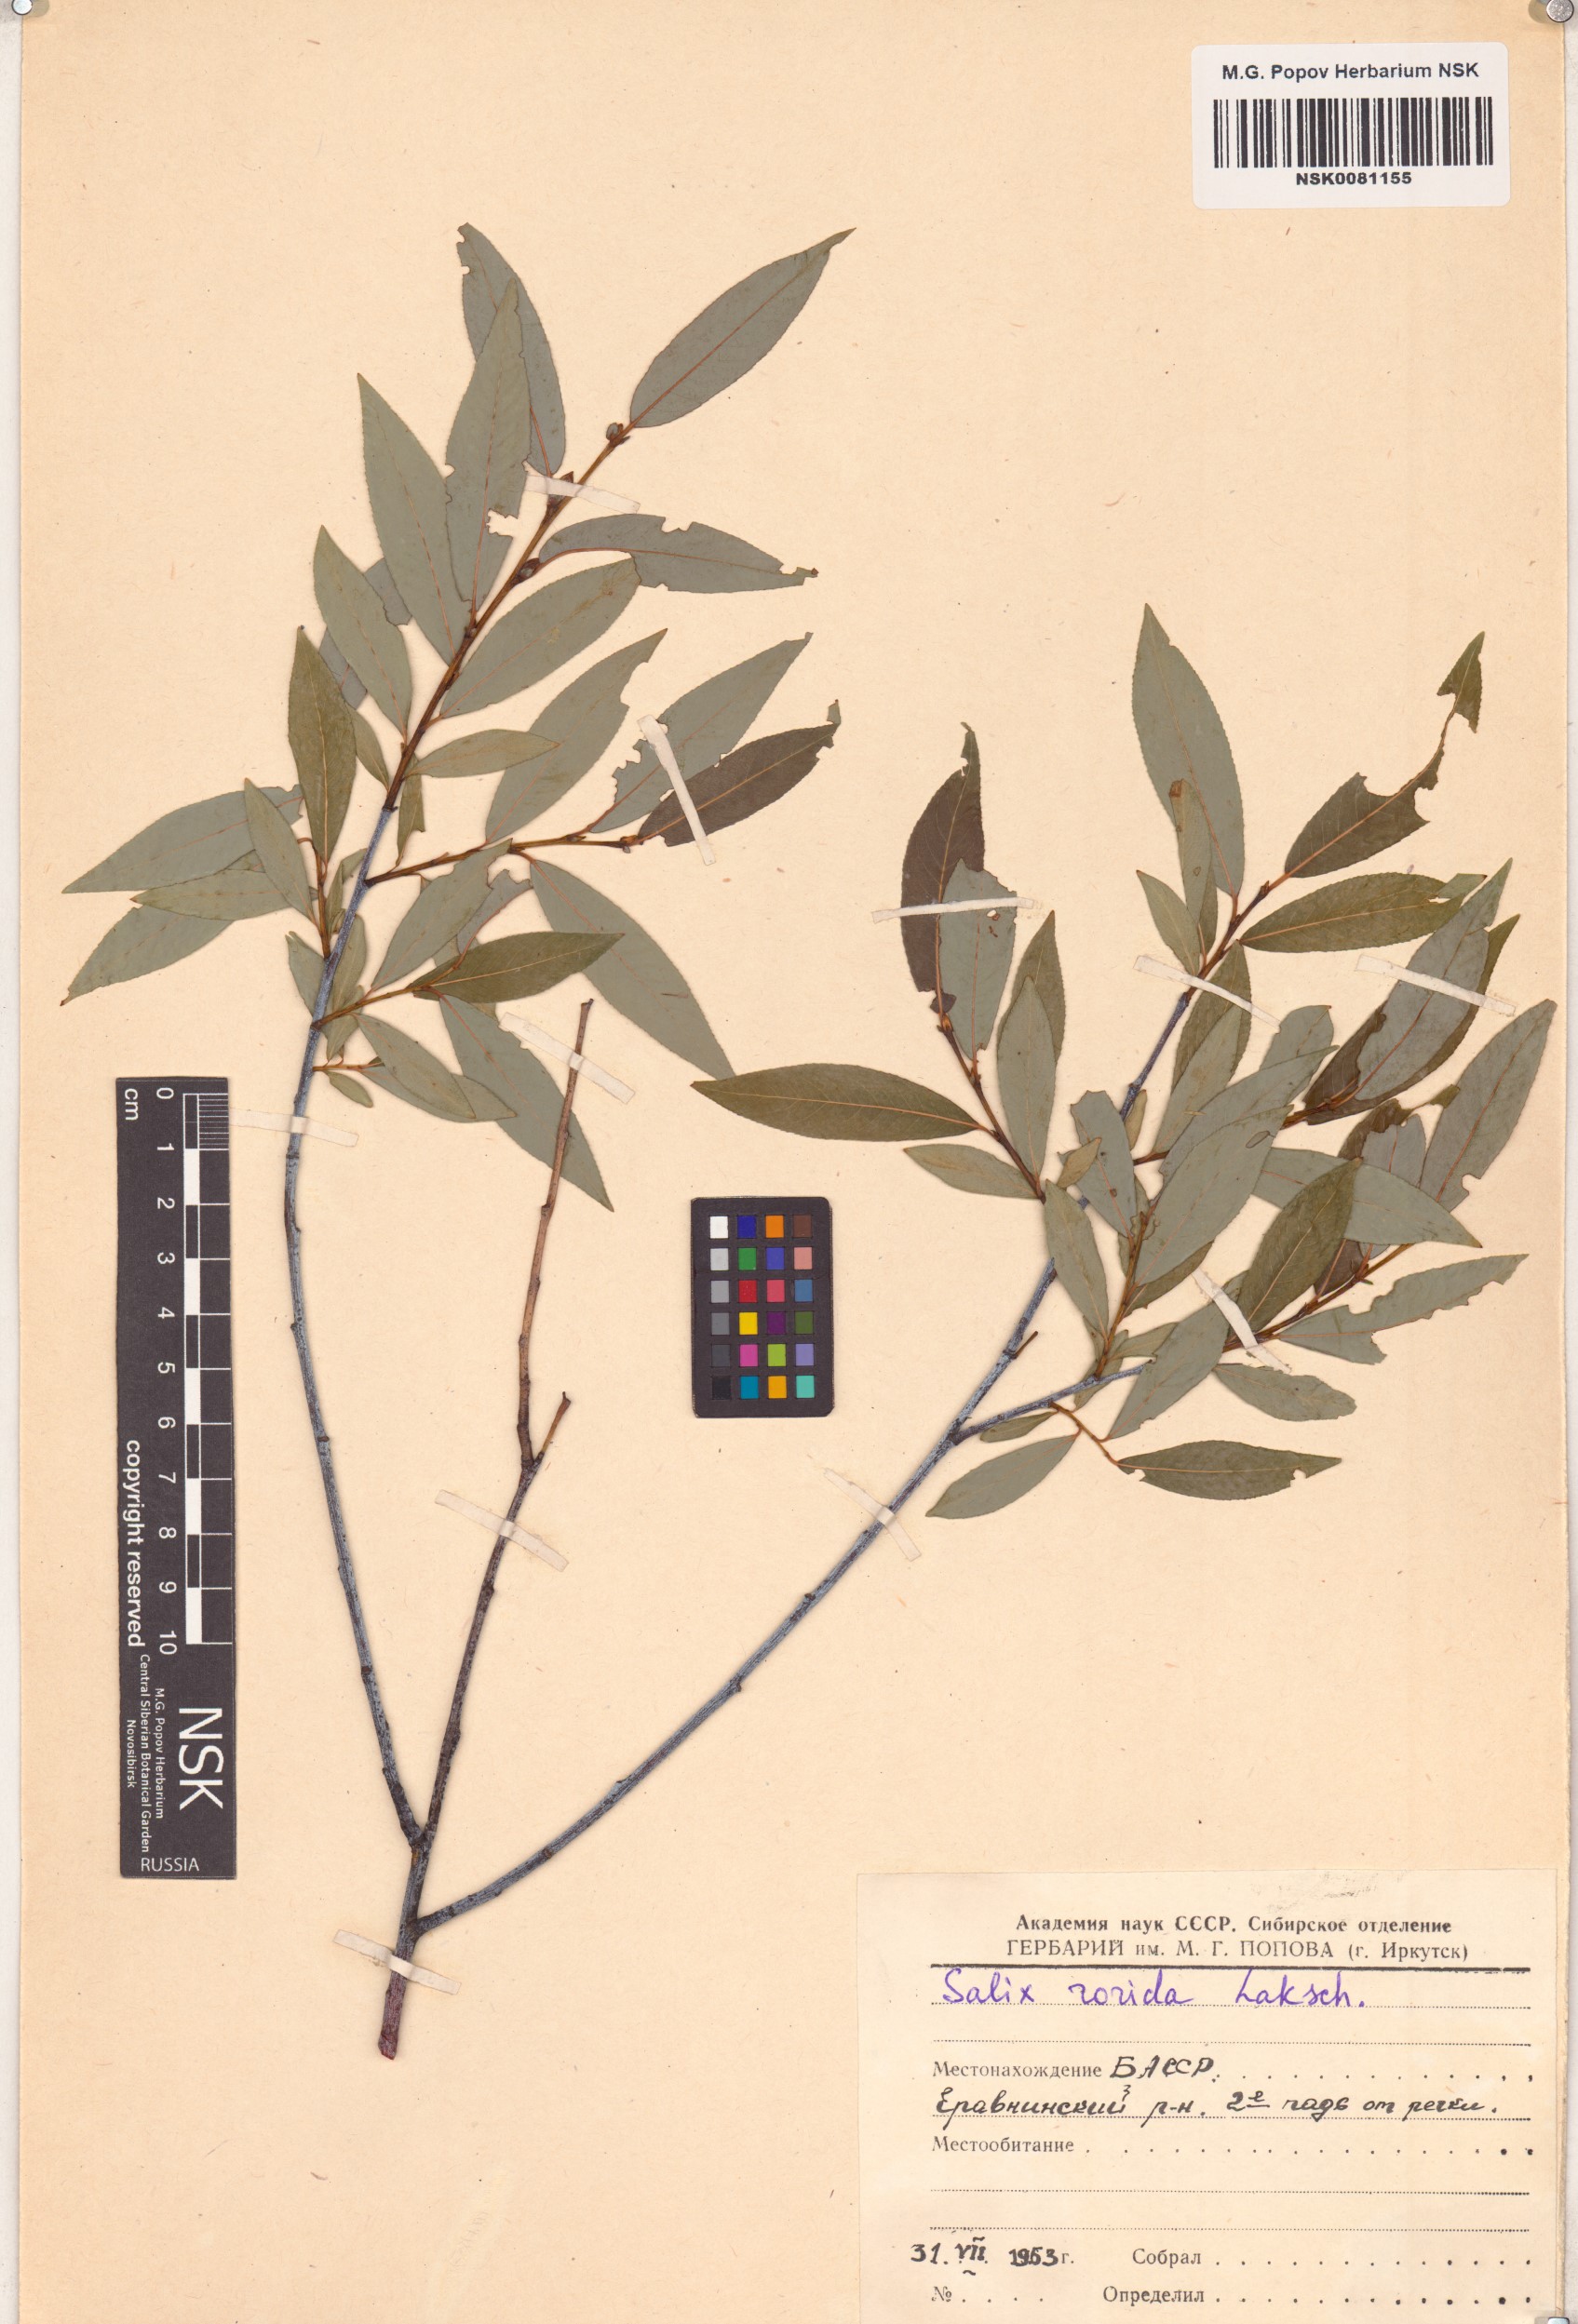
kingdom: Plantae
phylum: Tracheophyta
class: Magnoliopsida
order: Malpighiales
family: Salicaceae
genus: Salix
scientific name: Salix rorida
